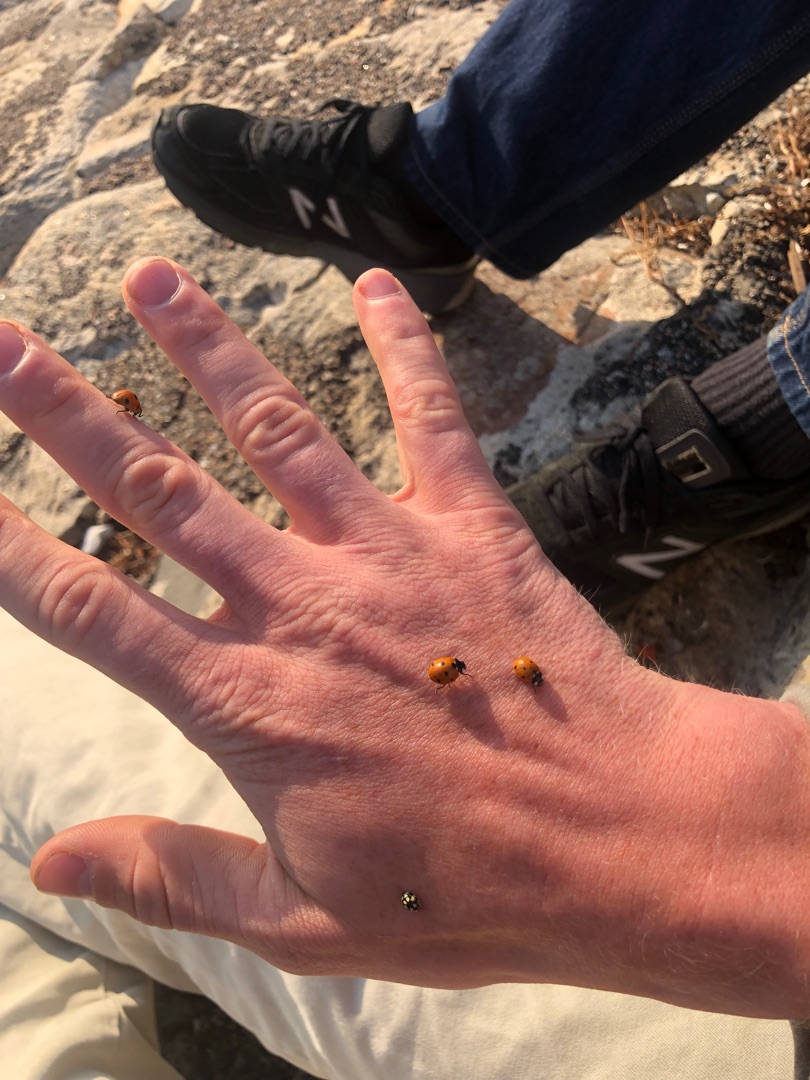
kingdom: Animalia
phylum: Arthropoda
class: Insecta
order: Coleoptera
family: Coccinellidae
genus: Coccinella
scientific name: Coccinella septempunctata
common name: Syvplettet mariehøne
